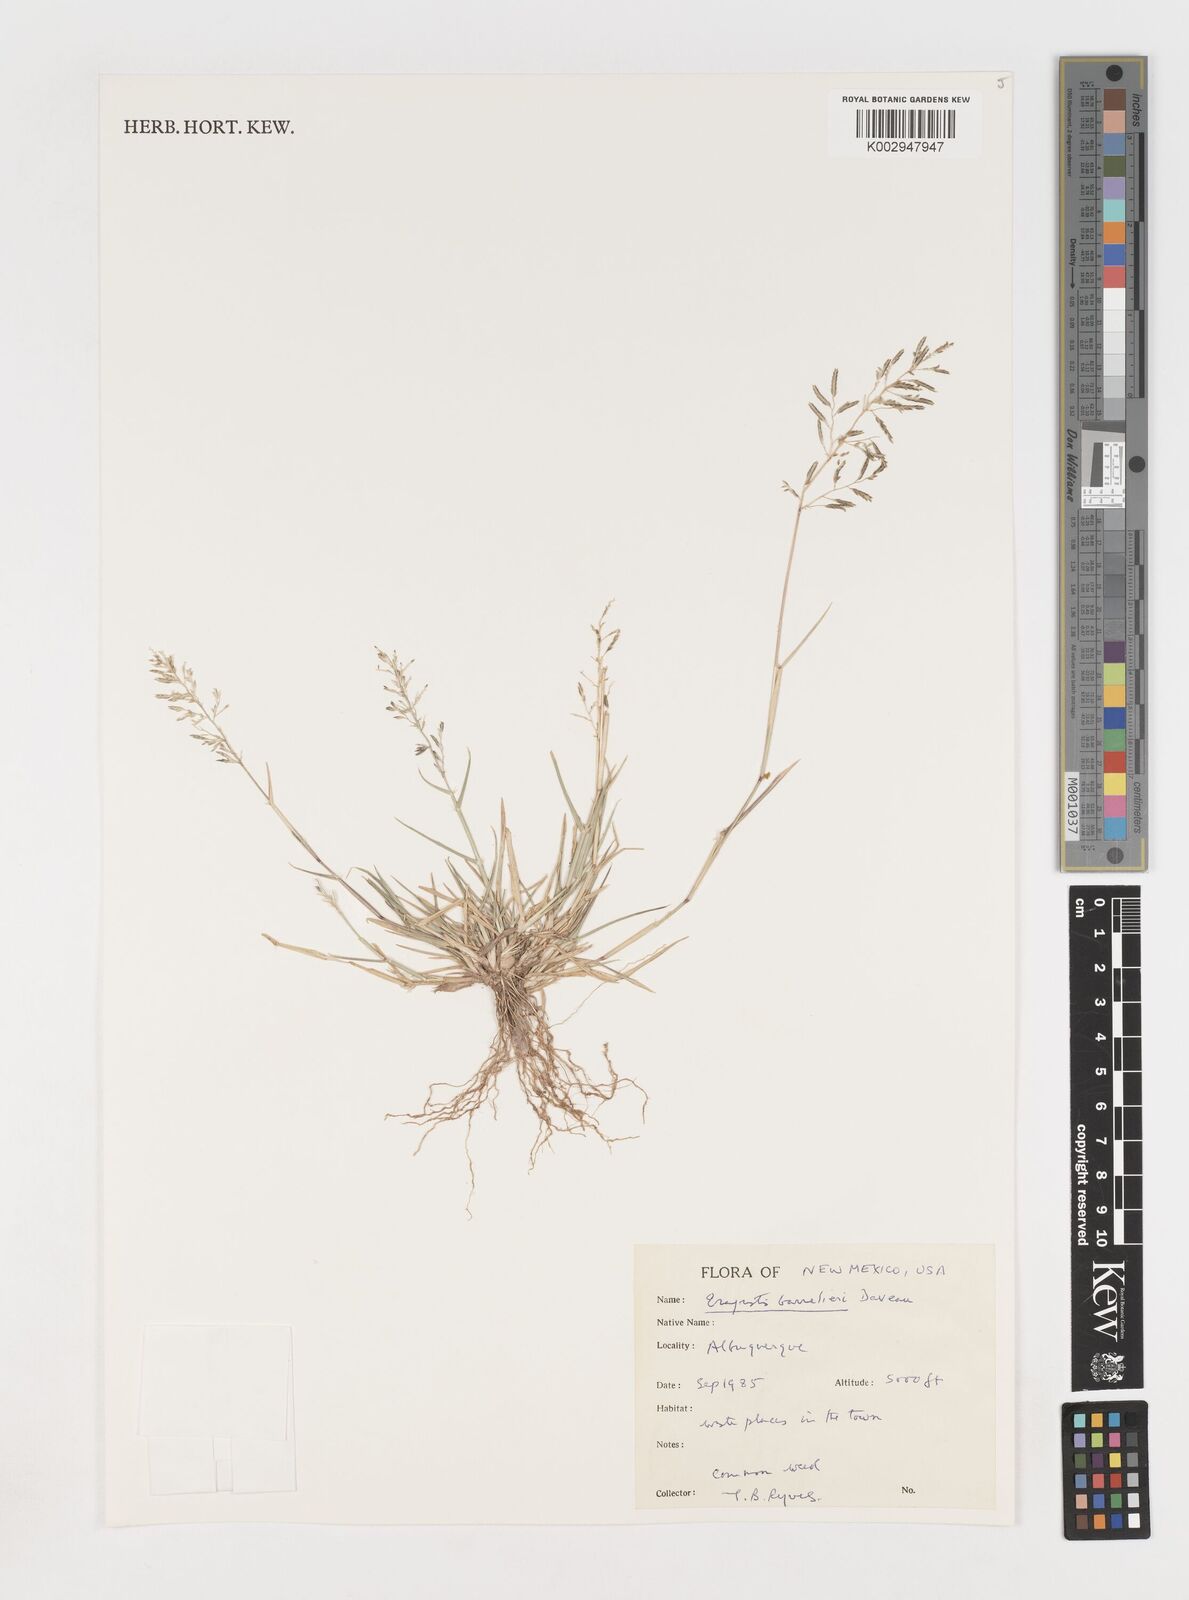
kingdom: Plantae
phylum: Tracheophyta
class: Liliopsida
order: Poales
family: Poaceae
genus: Eragrostis
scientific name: Eragrostis barrelieri
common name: Mediterranean lovegrass
